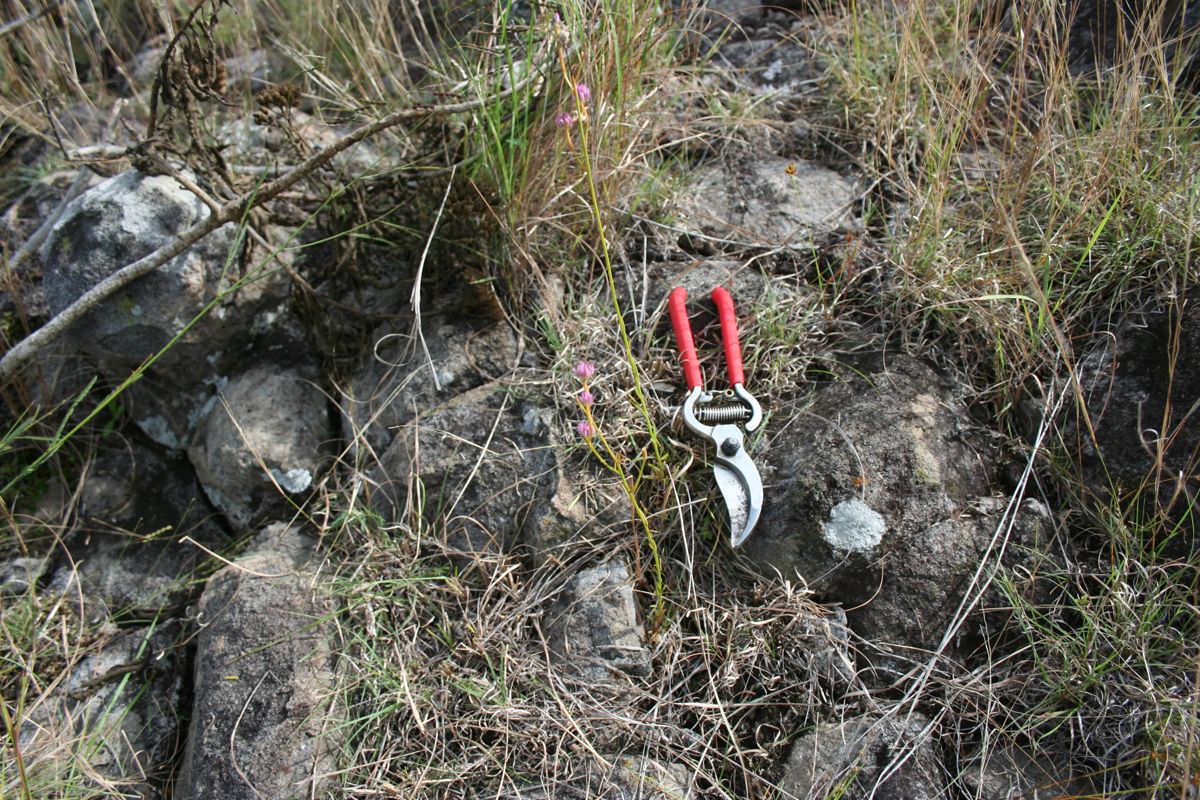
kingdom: Plantae
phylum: Tracheophyta
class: Magnoliopsida
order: Fabales
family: Polygalaceae
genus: Polygala
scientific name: Polygala longicaulis
